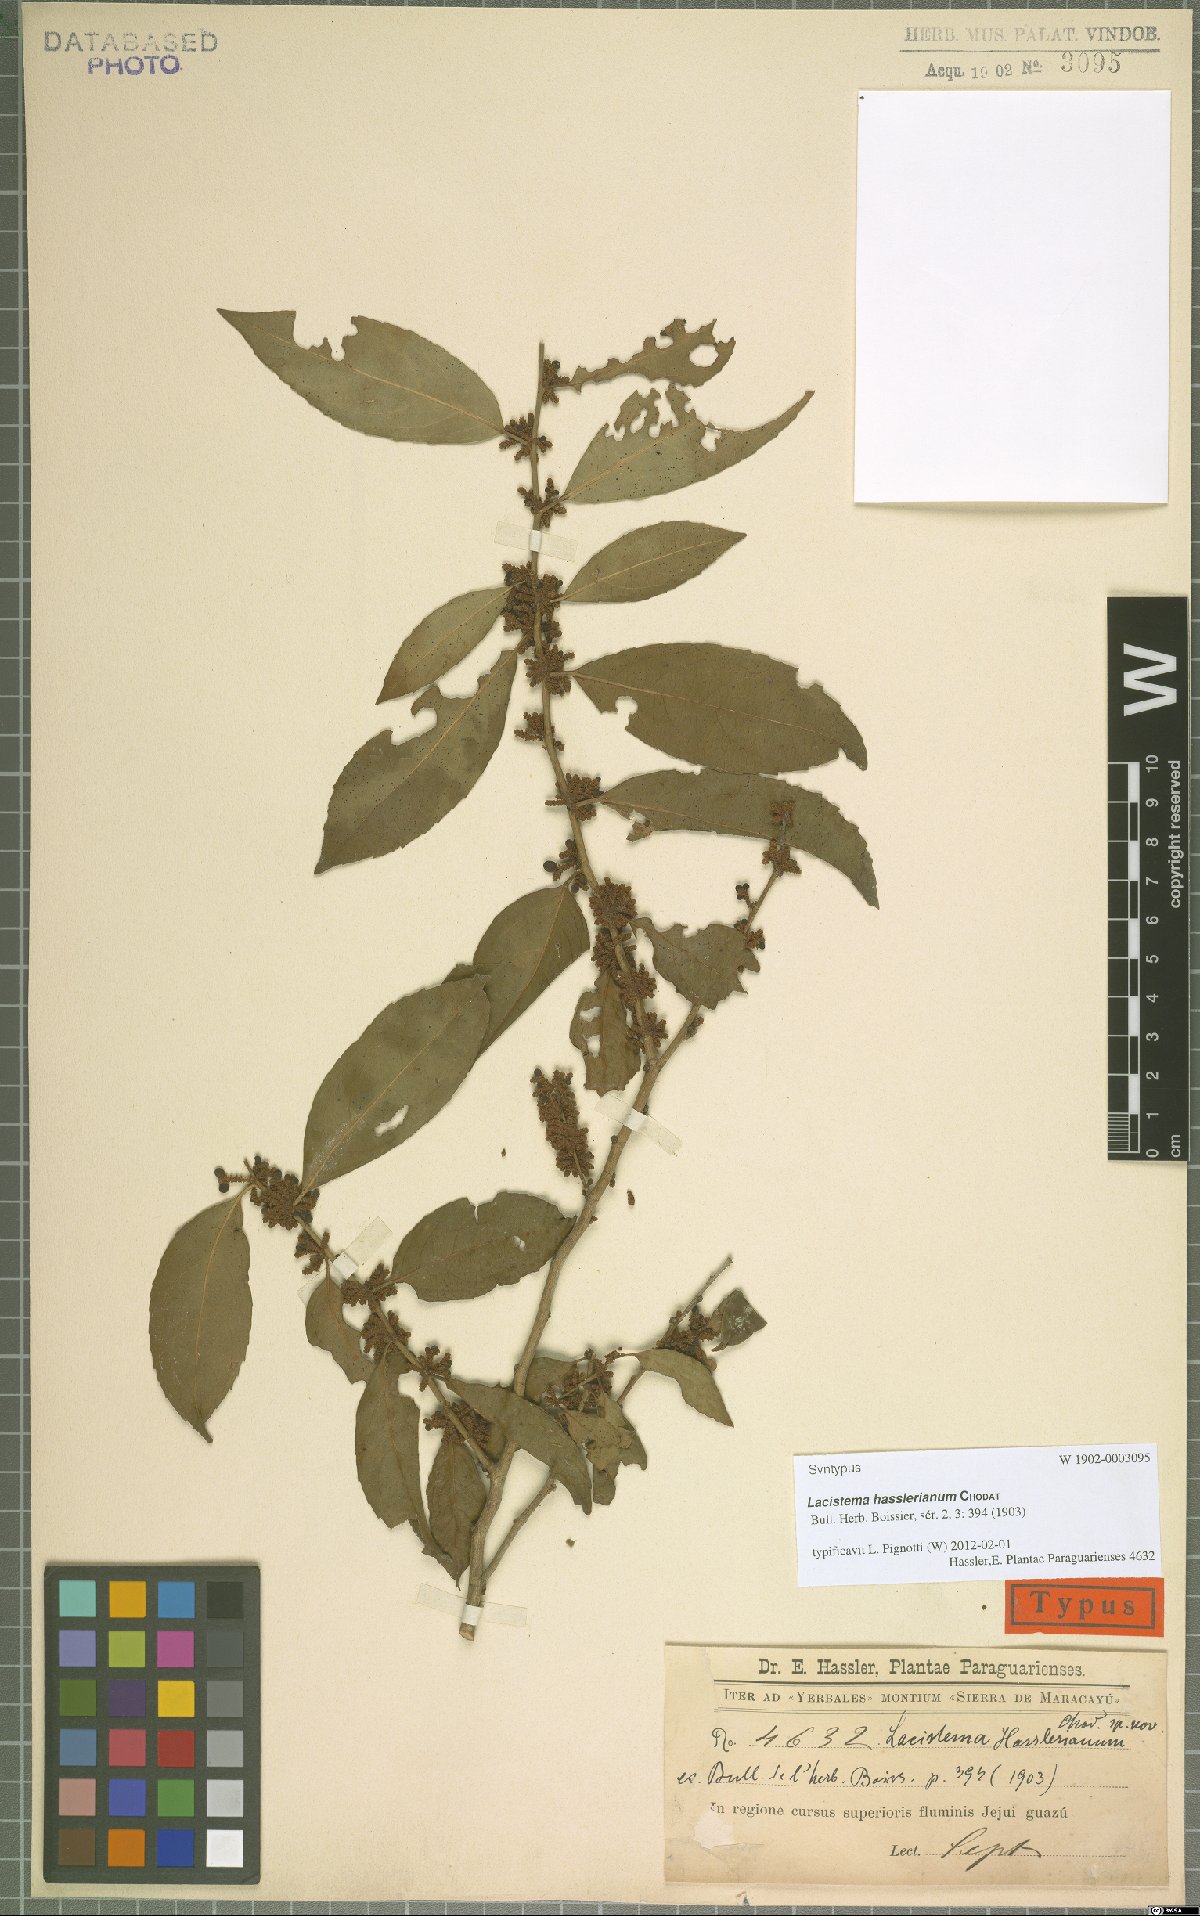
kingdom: Plantae
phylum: Tracheophyta
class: Magnoliopsida
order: Malpighiales
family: Lacistemataceae
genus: Lacistema
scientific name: Lacistema hasslerianum
